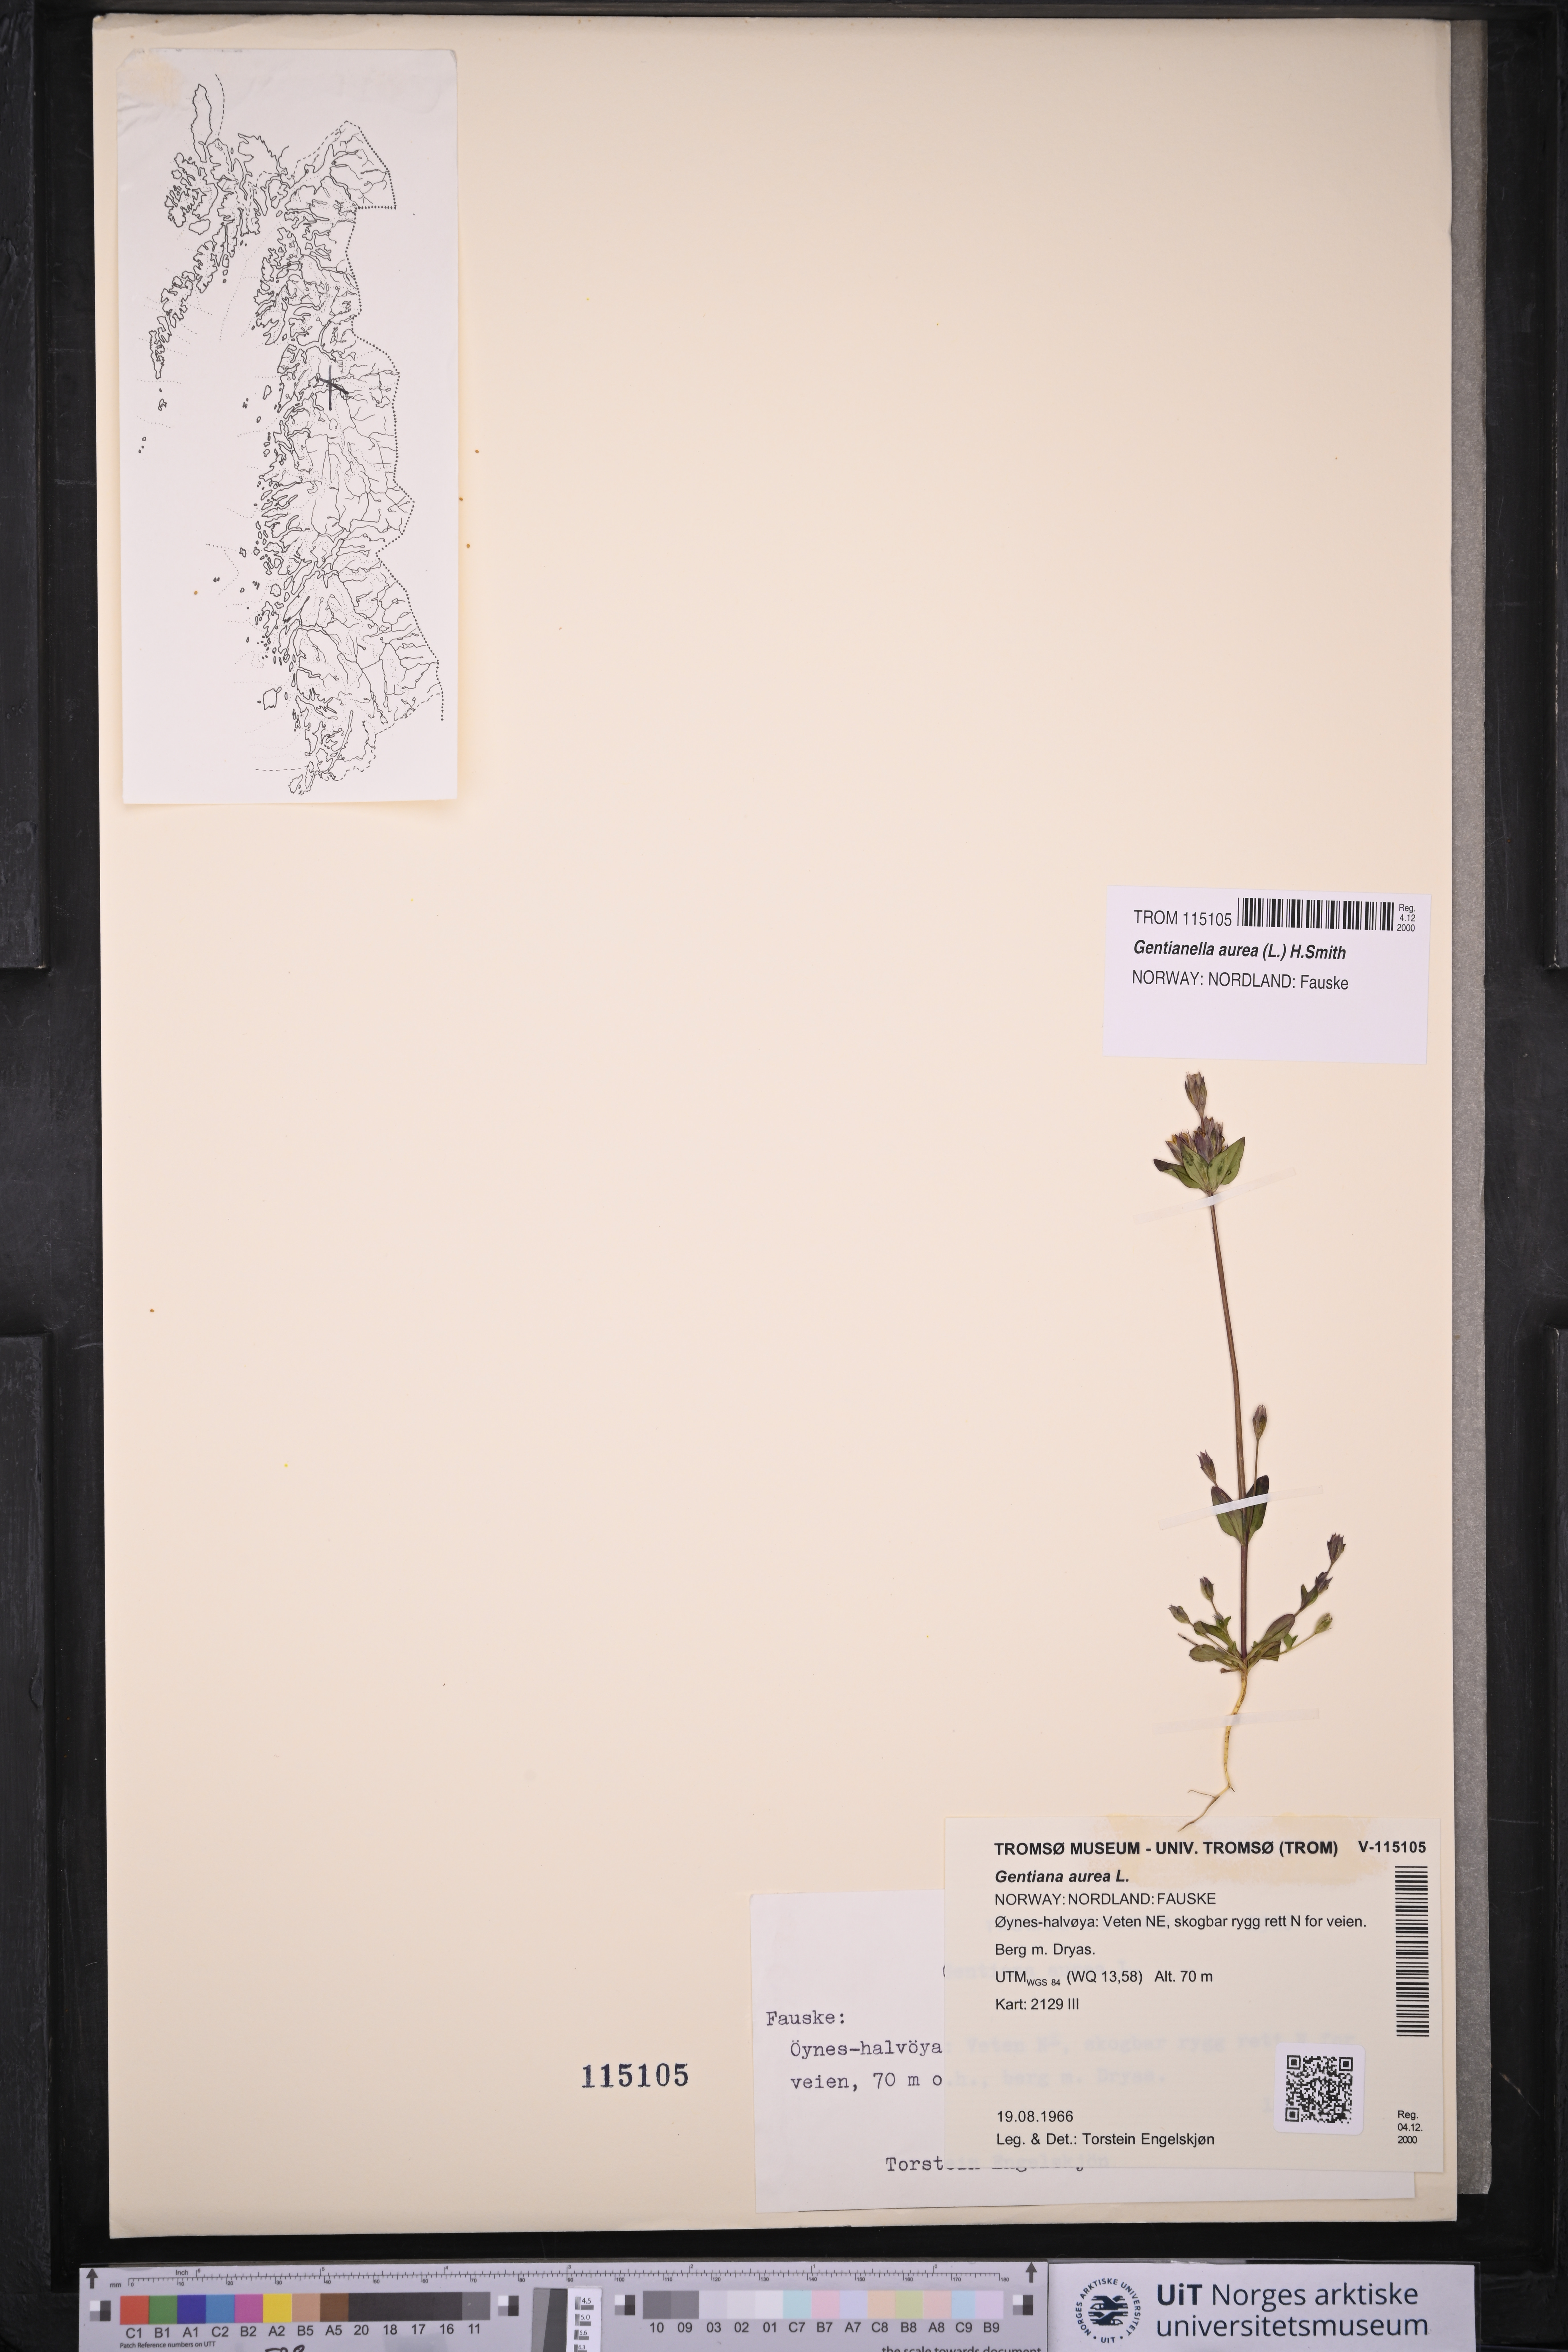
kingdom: Plantae
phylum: Tracheophyta
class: Magnoliopsida
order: Gentianales
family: Gentianaceae
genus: Gentianella
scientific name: Gentianella aurea
